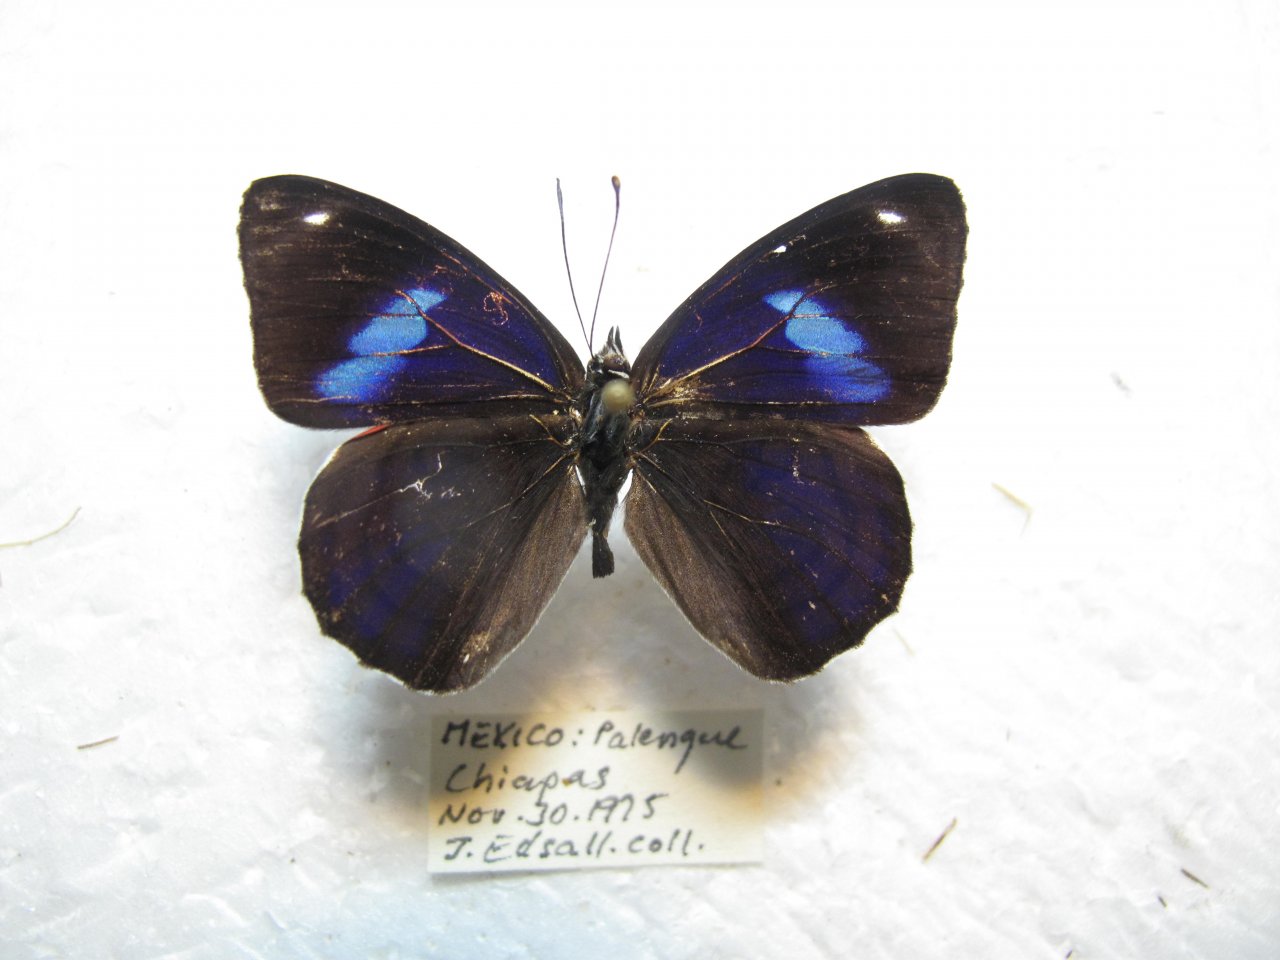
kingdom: Animalia
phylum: Arthropoda
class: Insecta
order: Lepidoptera
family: Nymphalidae
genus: Diaethria
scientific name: Diaethria astala
